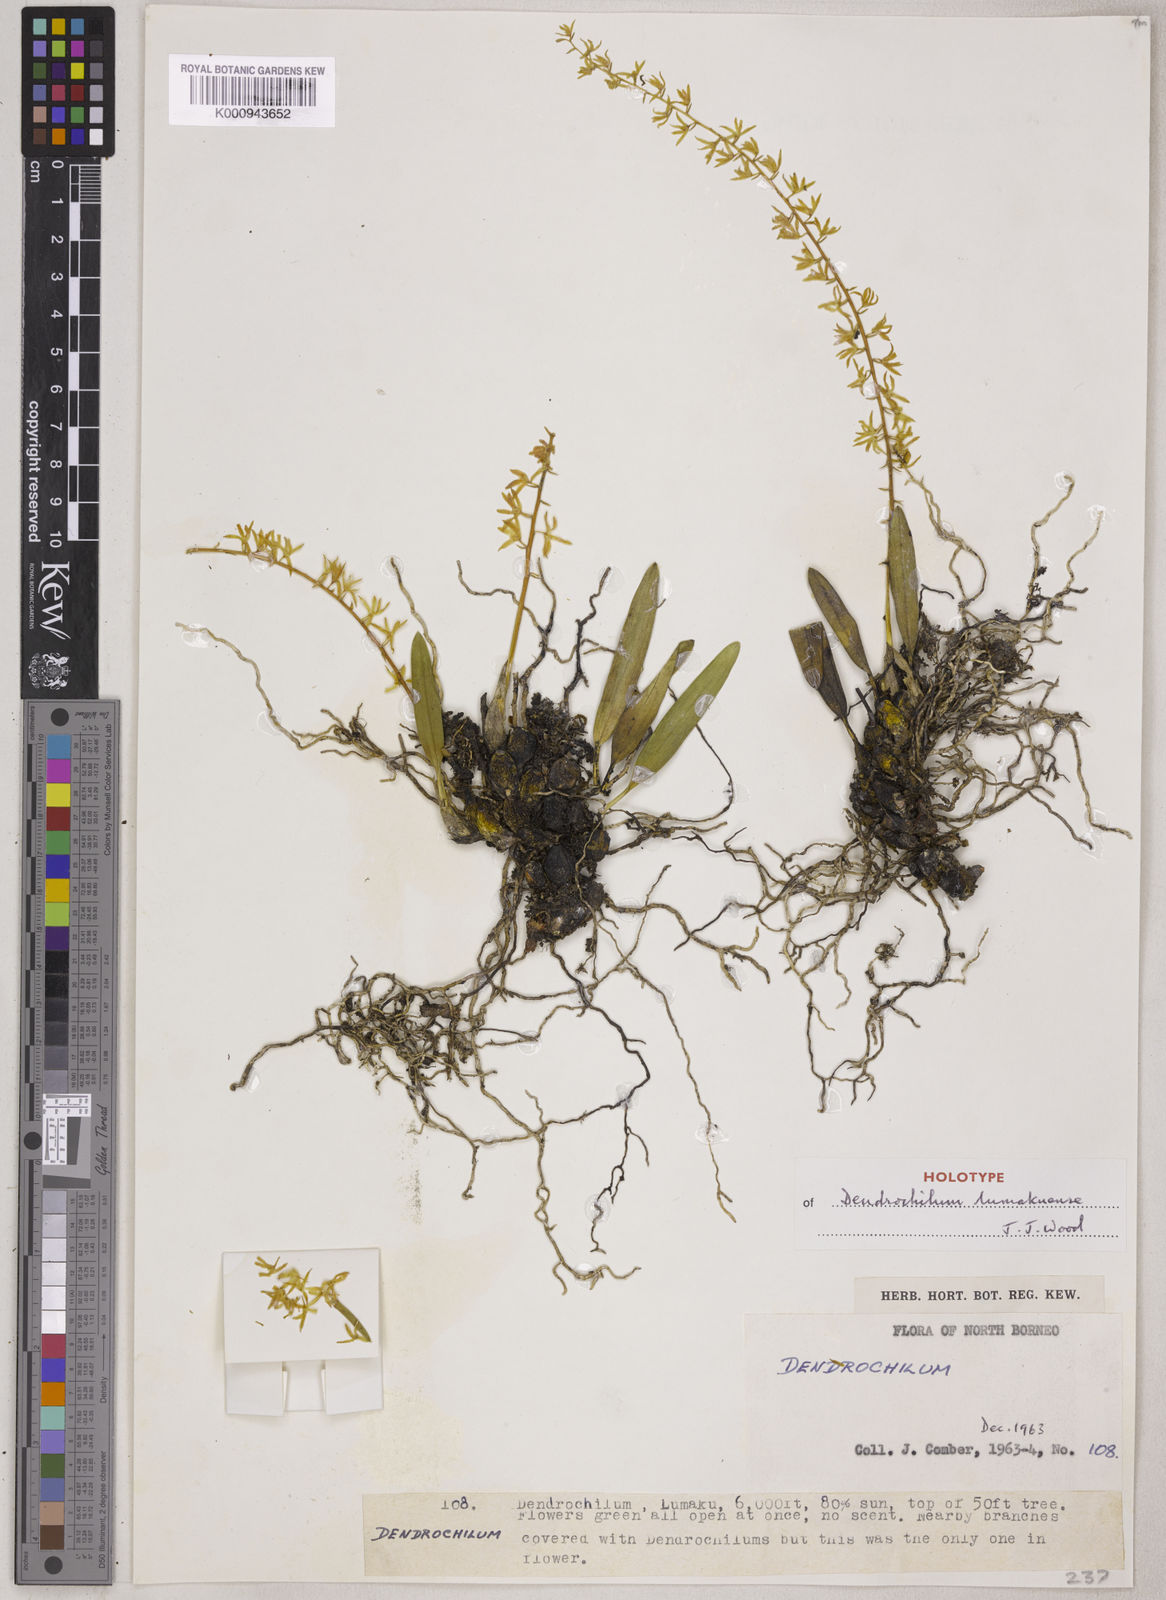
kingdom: Plantae
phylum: Tracheophyta
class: Liliopsida
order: Asparagales
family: Orchidaceae
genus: Coelogyne
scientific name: Coelogyne lumakuensis
